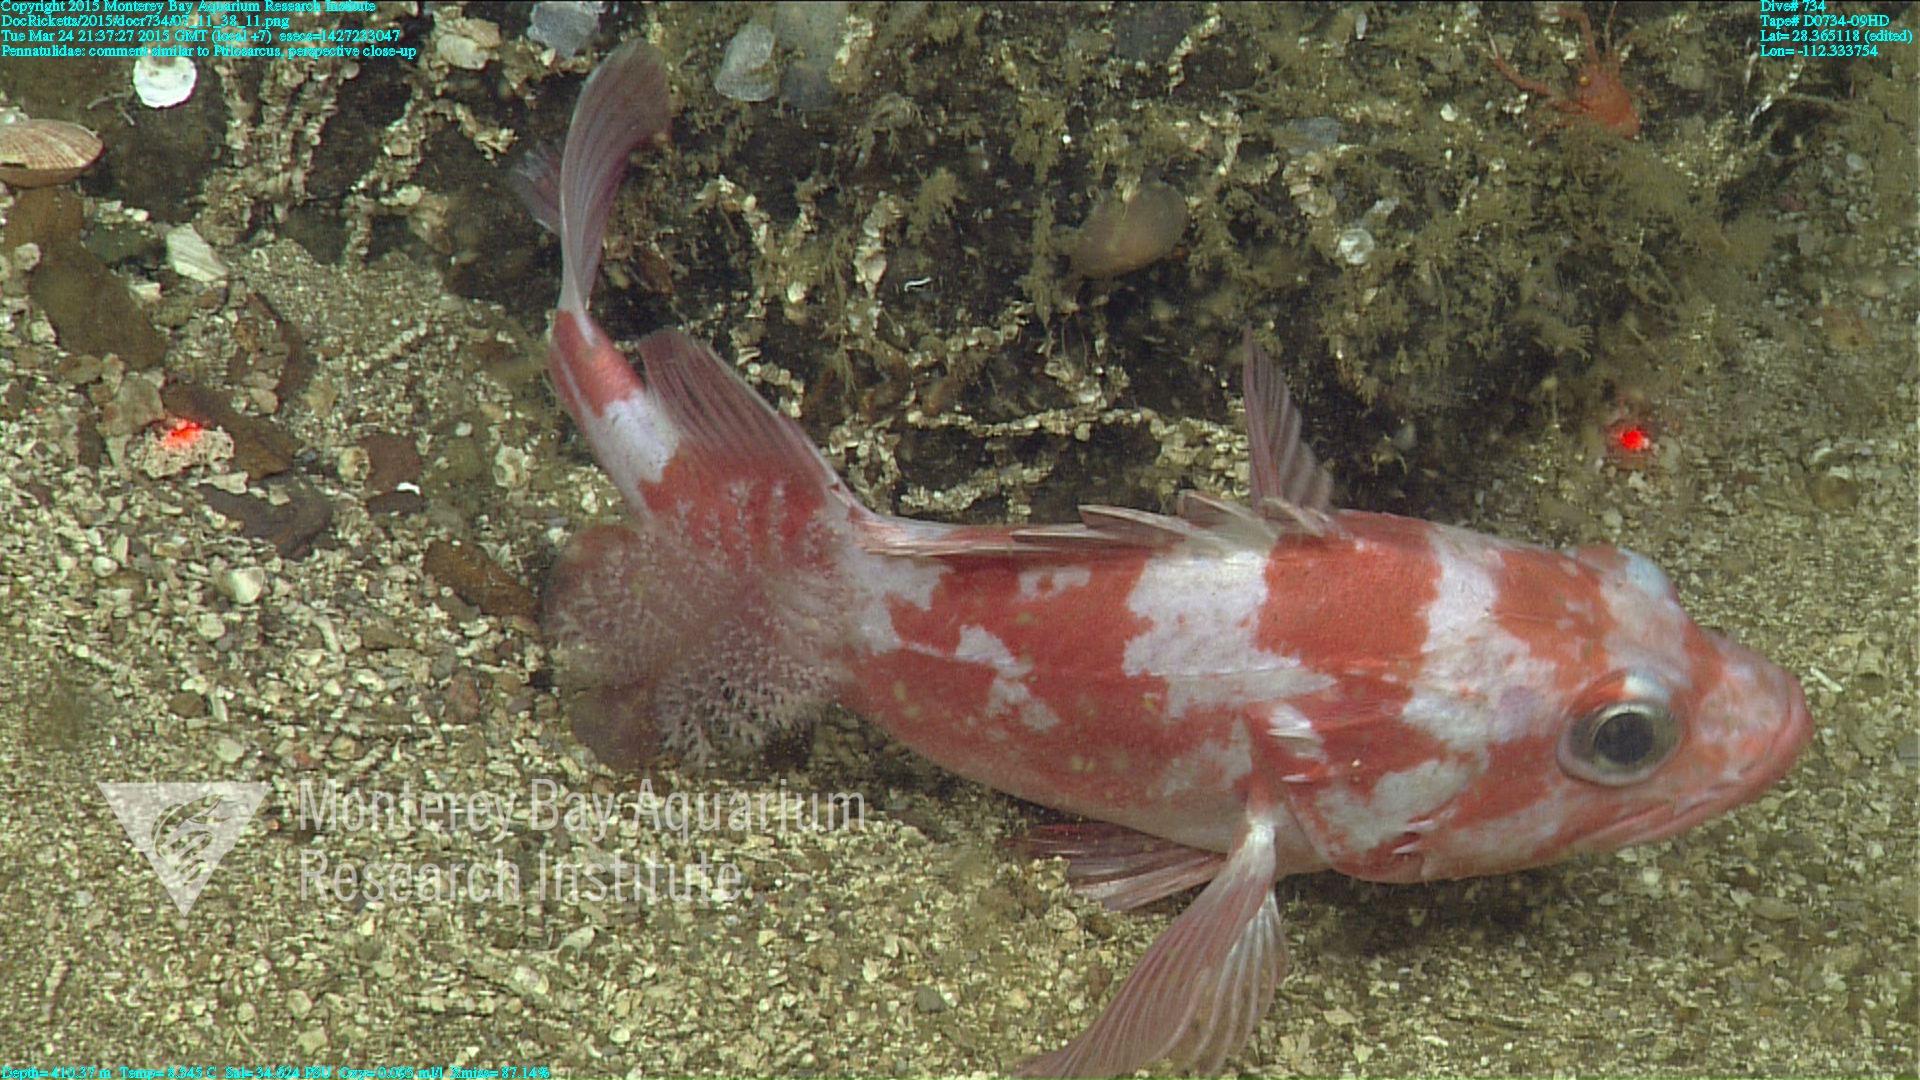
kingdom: Animalia
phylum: Cnidaria
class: Anthozoa
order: Scleralcyonacea
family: Pennatulidae
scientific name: Pennatulidae
